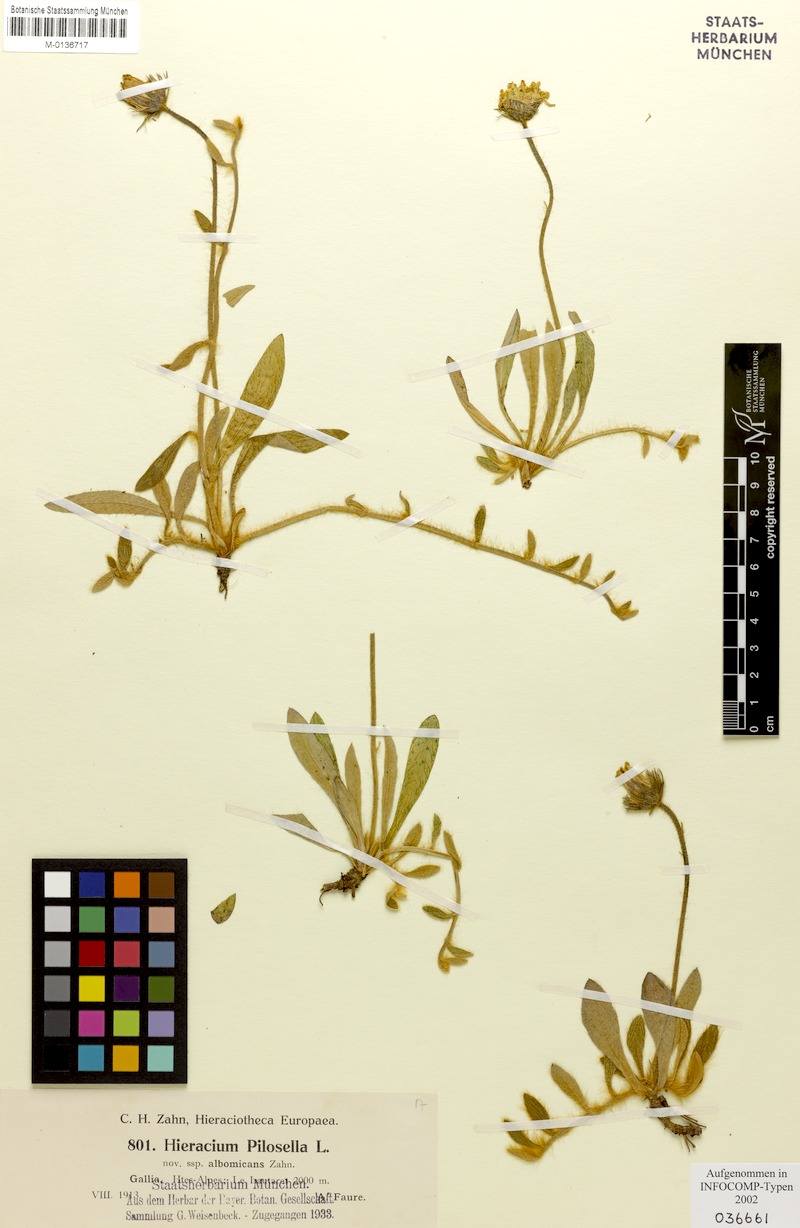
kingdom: Plantae
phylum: Tracheophyta
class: Magnoliopsida
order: Asterales
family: Asteraceae
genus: Pilosella
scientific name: Pilosella officinarum
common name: Mouse-ear hawkweed
